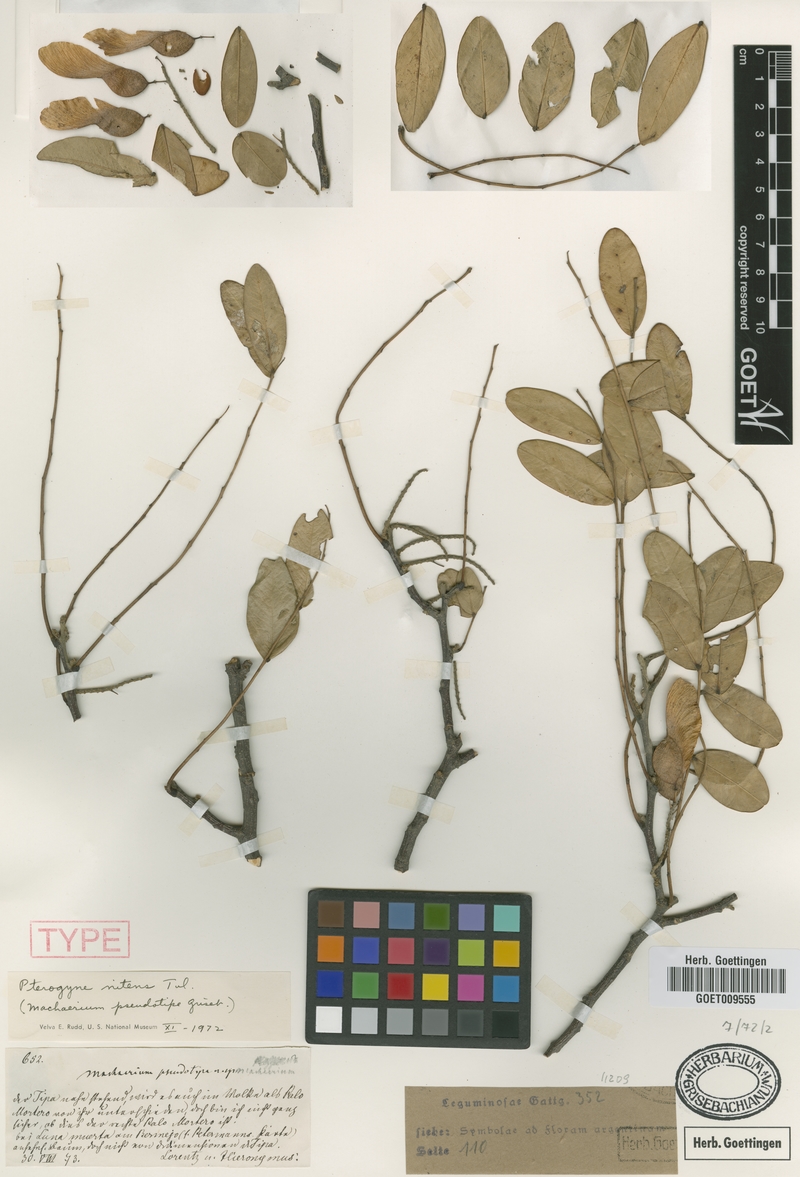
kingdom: Plantae
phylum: Tracheophyta
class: Magnoliopsida
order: Fabales
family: Fabaceae
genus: Pterogyne
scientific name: Pterogyne nitens
